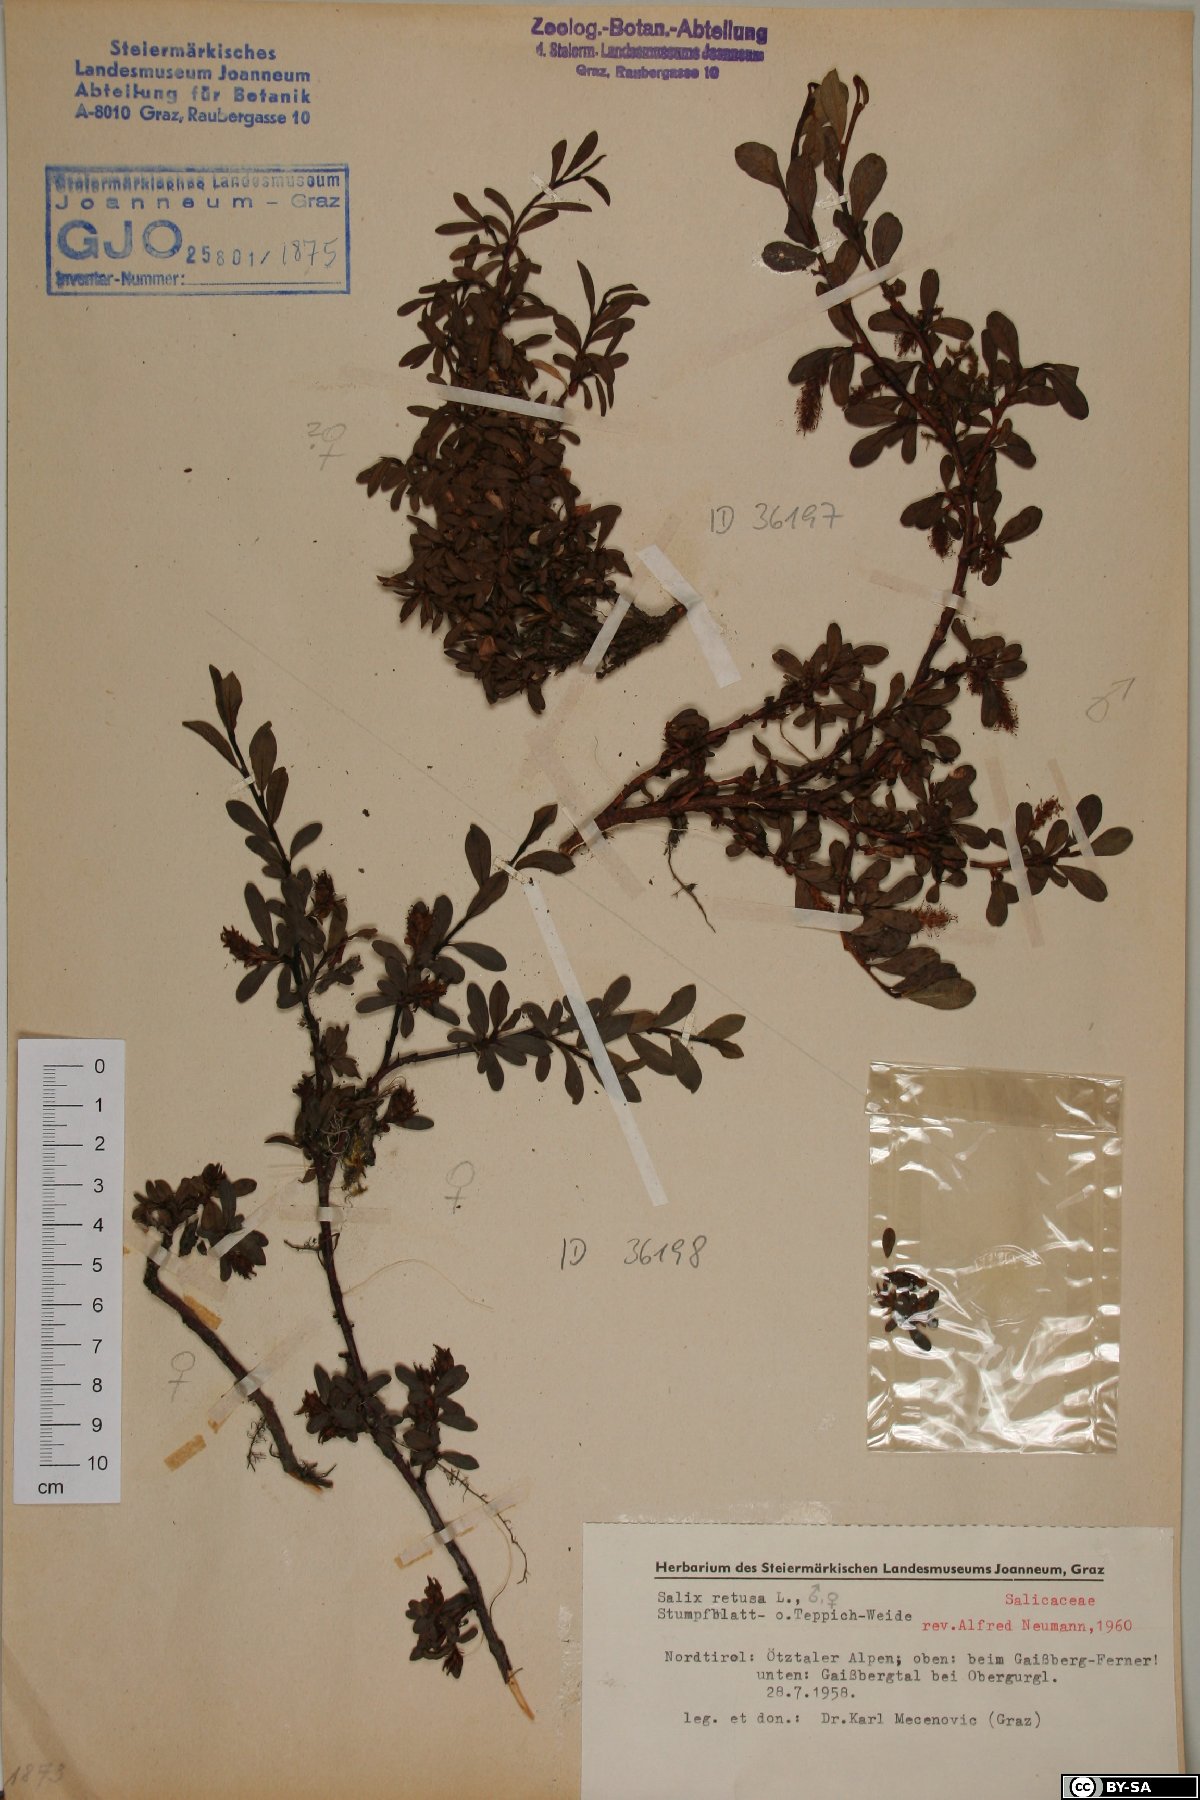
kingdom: Plantae
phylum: Tracheophyta
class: Magnoliopsida
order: Malpighiales
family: Salicaceae
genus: Salix
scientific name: Salix retusa
